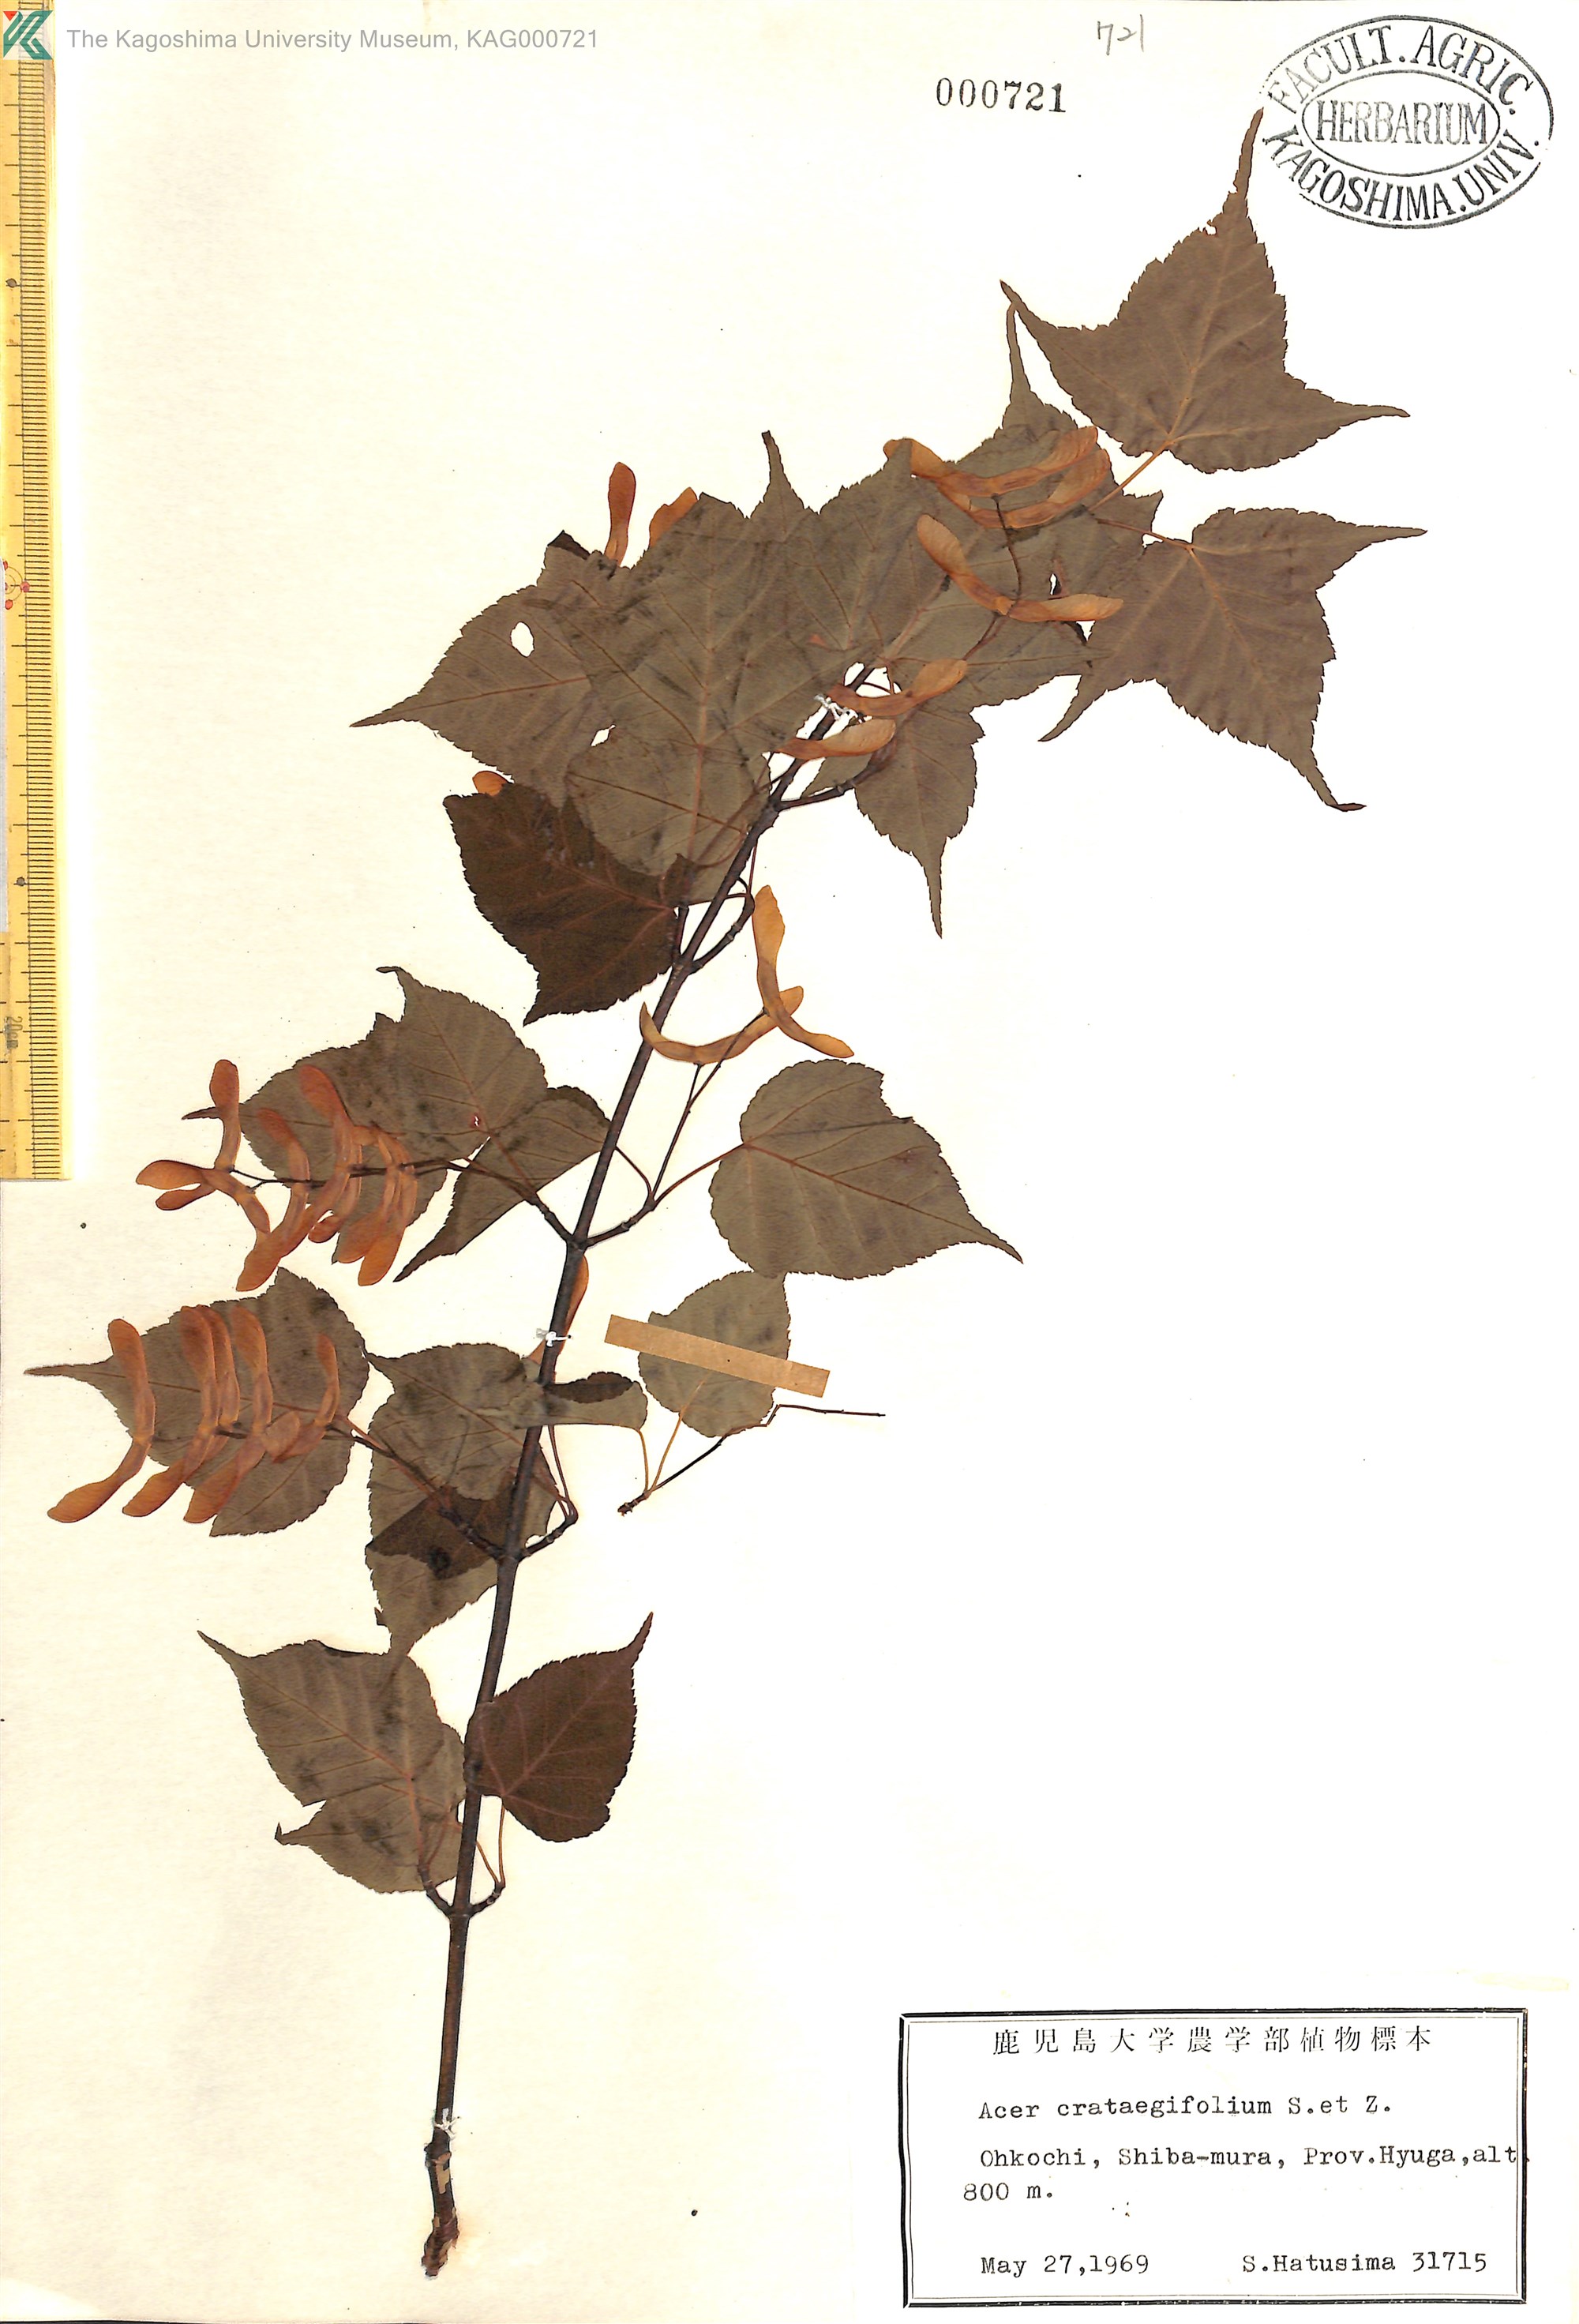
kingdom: Plantae
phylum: Tracheophyta
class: Magnoliopsida
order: Sapindales
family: Sapindaceae
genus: Acer
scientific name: Acer crataegifolium
